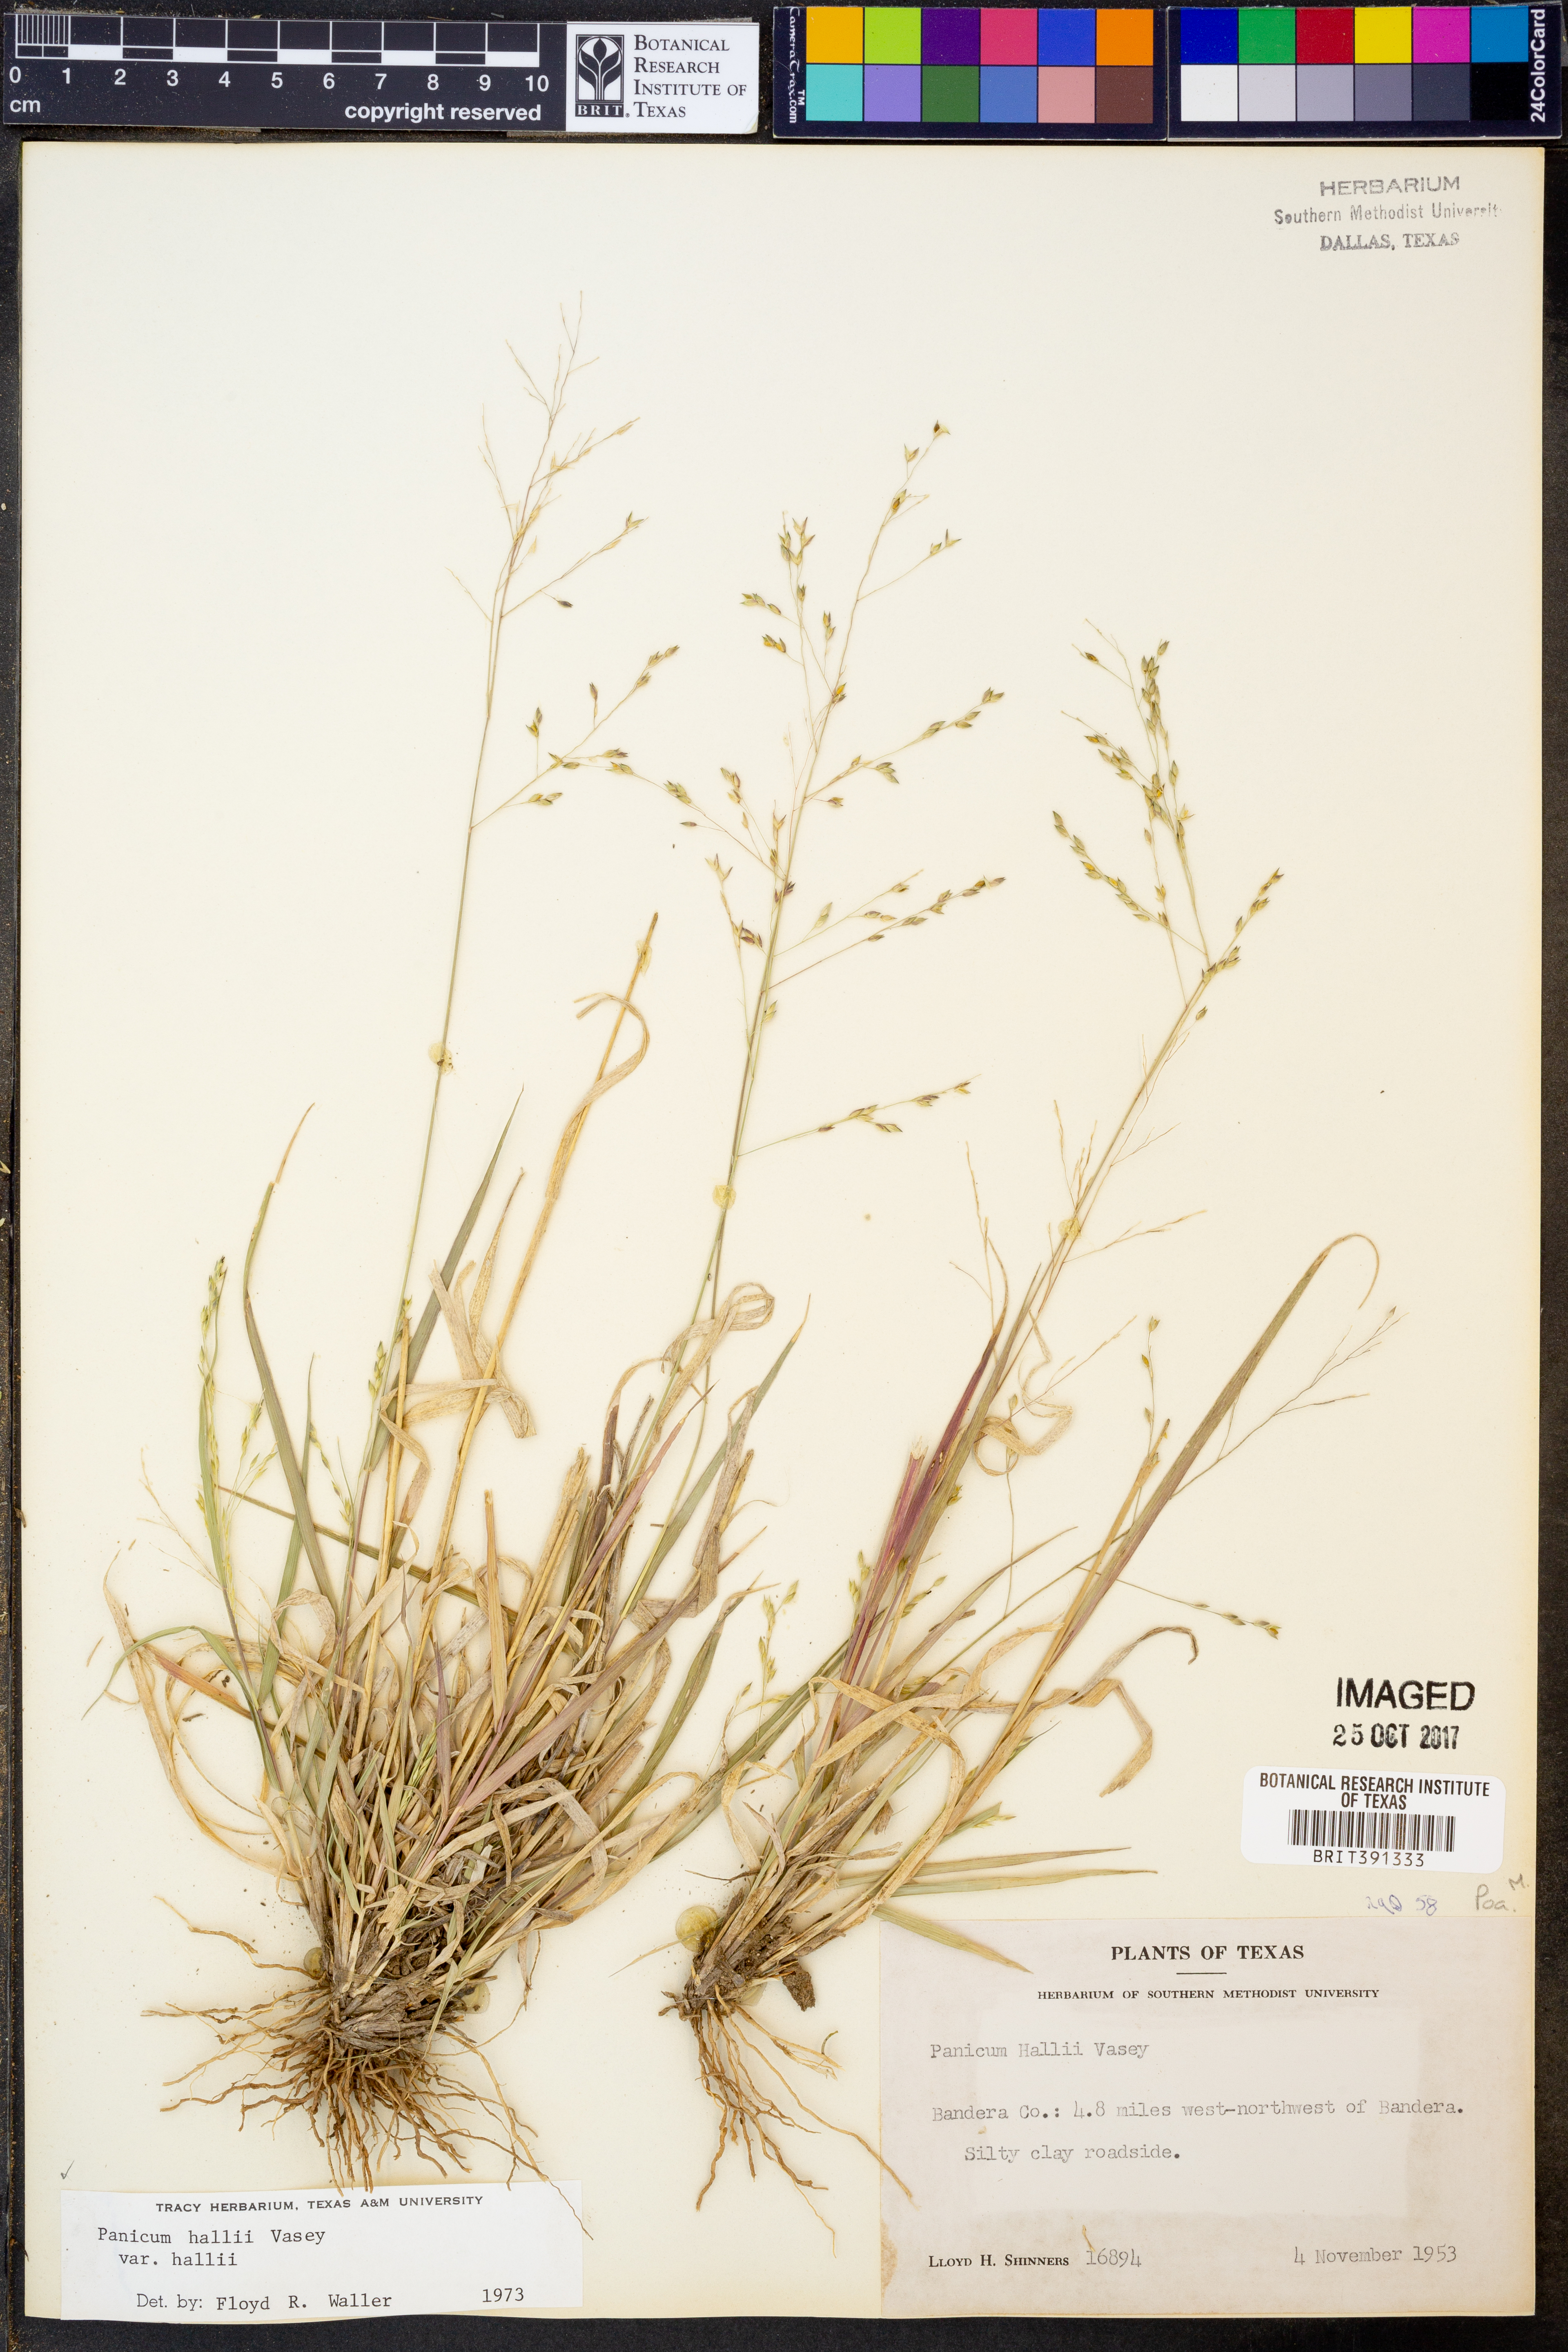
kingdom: Plantae
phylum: Tracheophyta
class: Liliopsida
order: Poales
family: Poaceae
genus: Panicum
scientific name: Panicum hallii
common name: Hall's witchgrass
